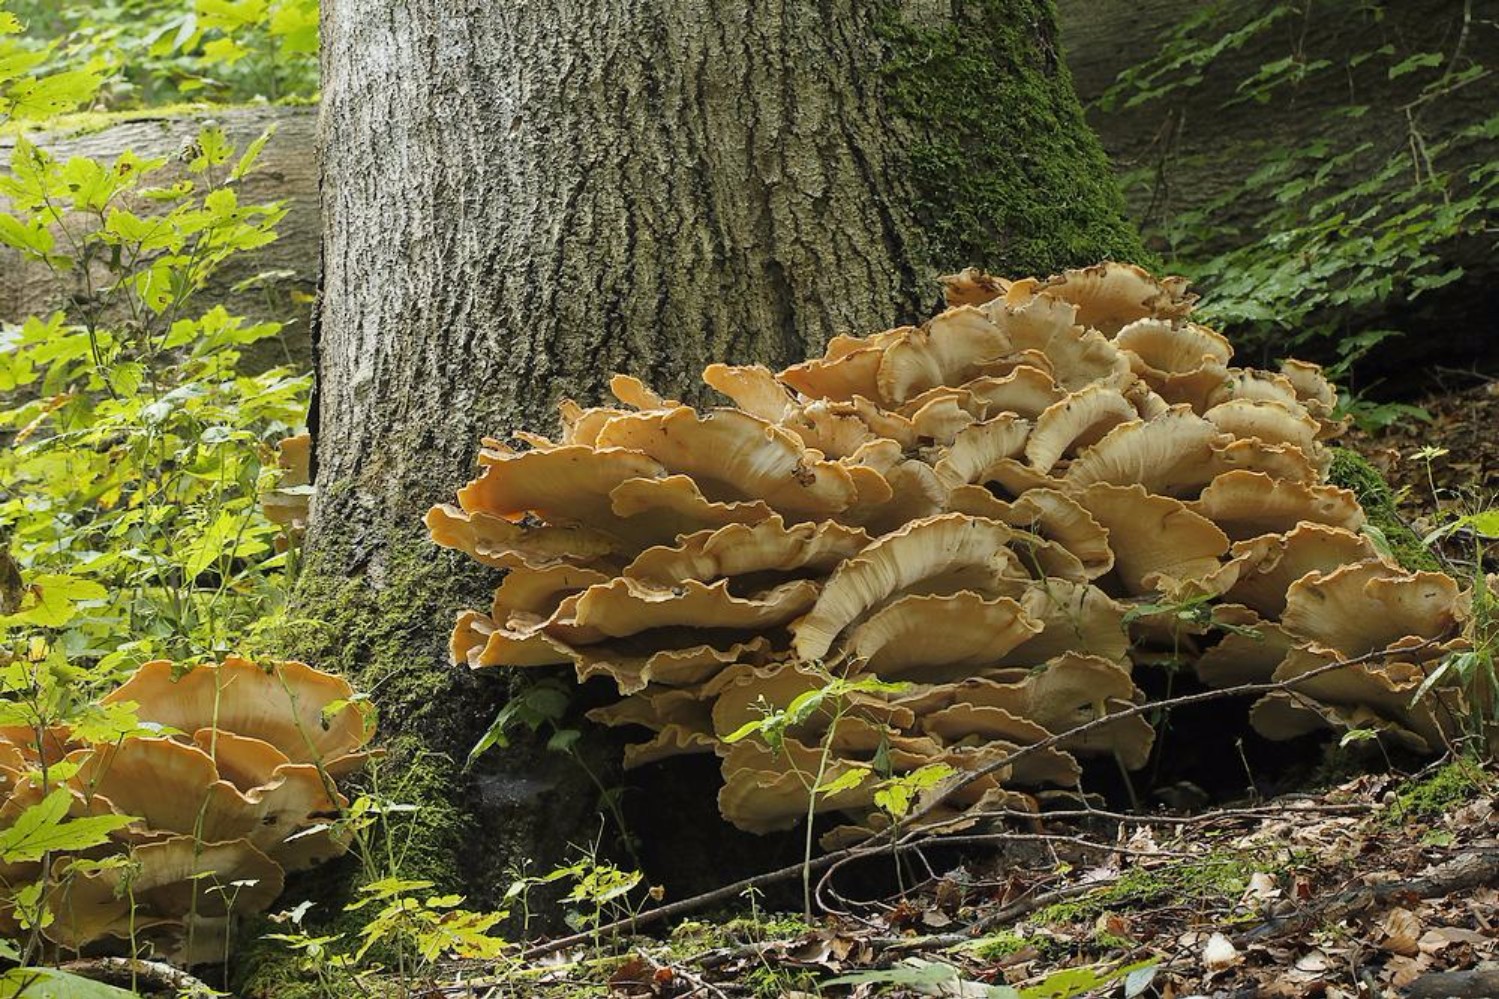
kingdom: Fungi
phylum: Basidiomycota
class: Agaricomycetes
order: Polyporales
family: Meripilaceae
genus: Meripilus
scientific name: Meripilus giganteus
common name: kæmpeporesvamp
